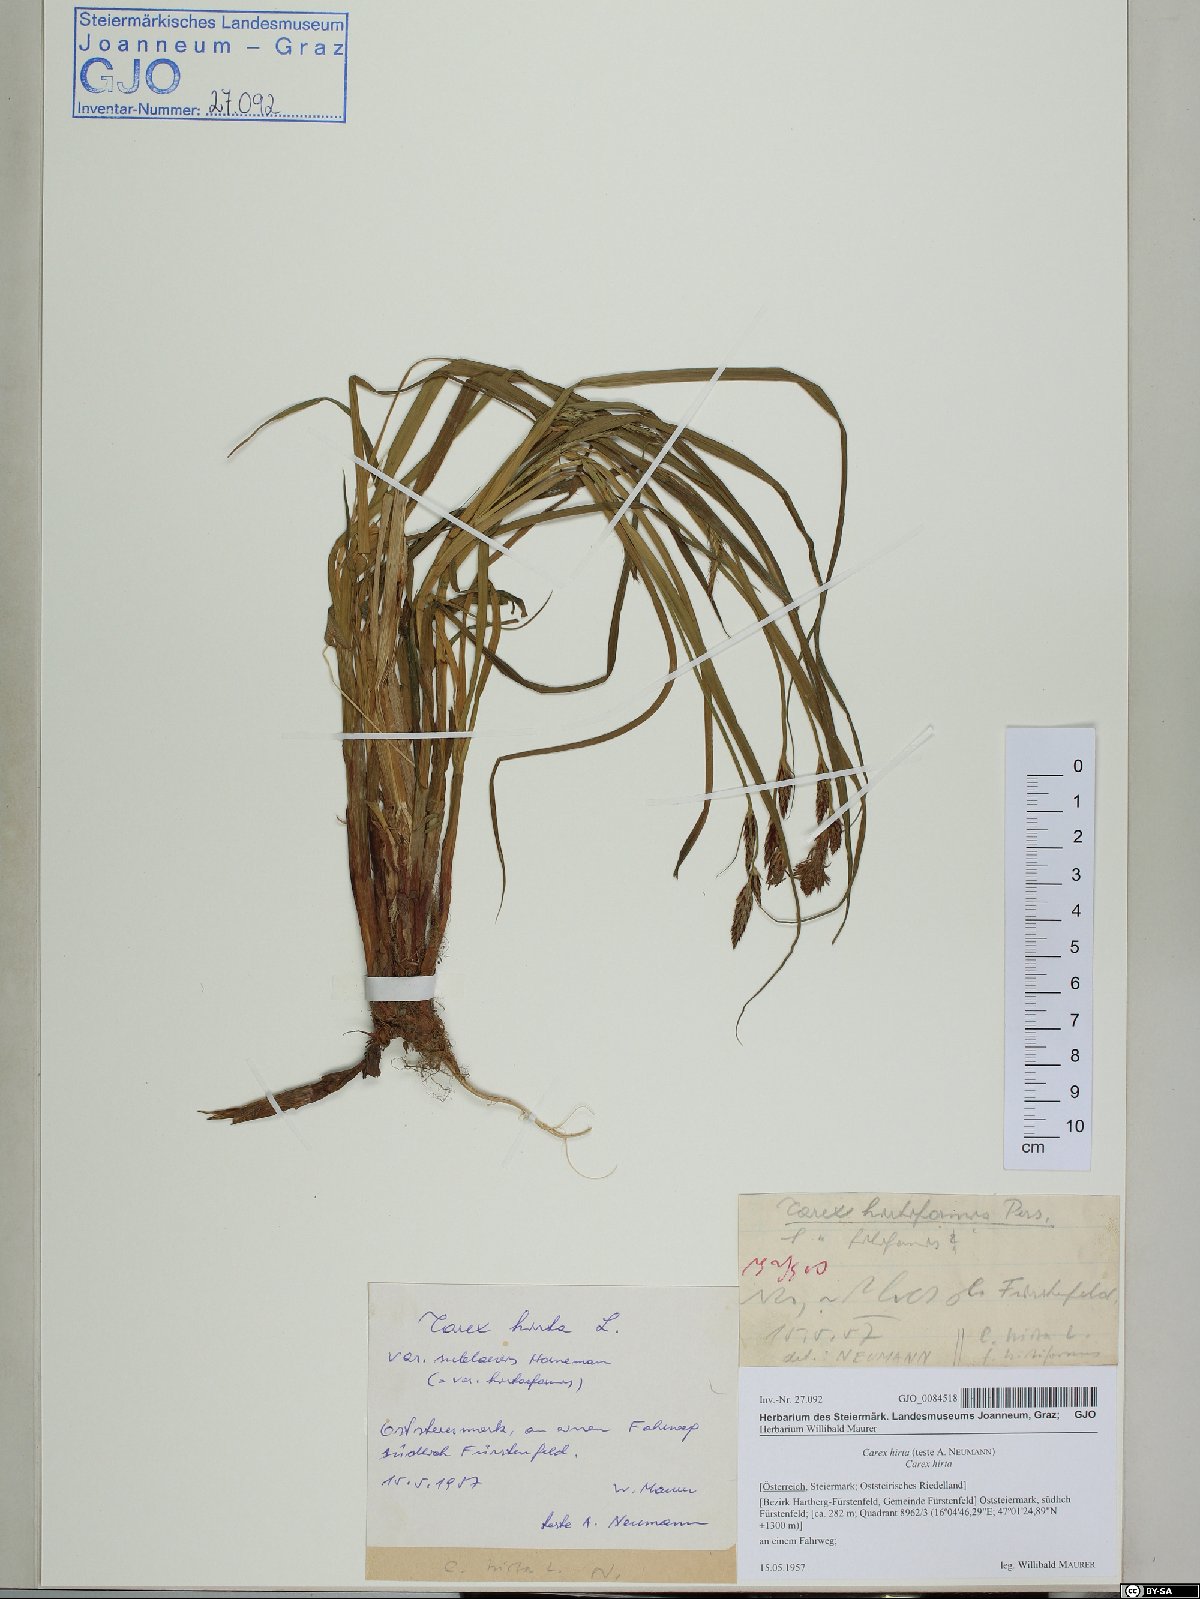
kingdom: Plantae
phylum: Tracheophyta
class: Liliopsida
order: Poales
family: Cyperaceae
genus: Carex
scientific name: Carex hirta
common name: Hairy sedge
